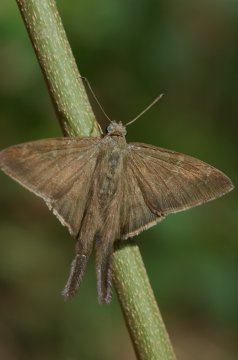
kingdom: Animalia
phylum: Arthropoda
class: Insecta
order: Lepidoptera
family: Hesperiidae
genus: Urbanus
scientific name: Urbanus procne
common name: Brown Longtail
